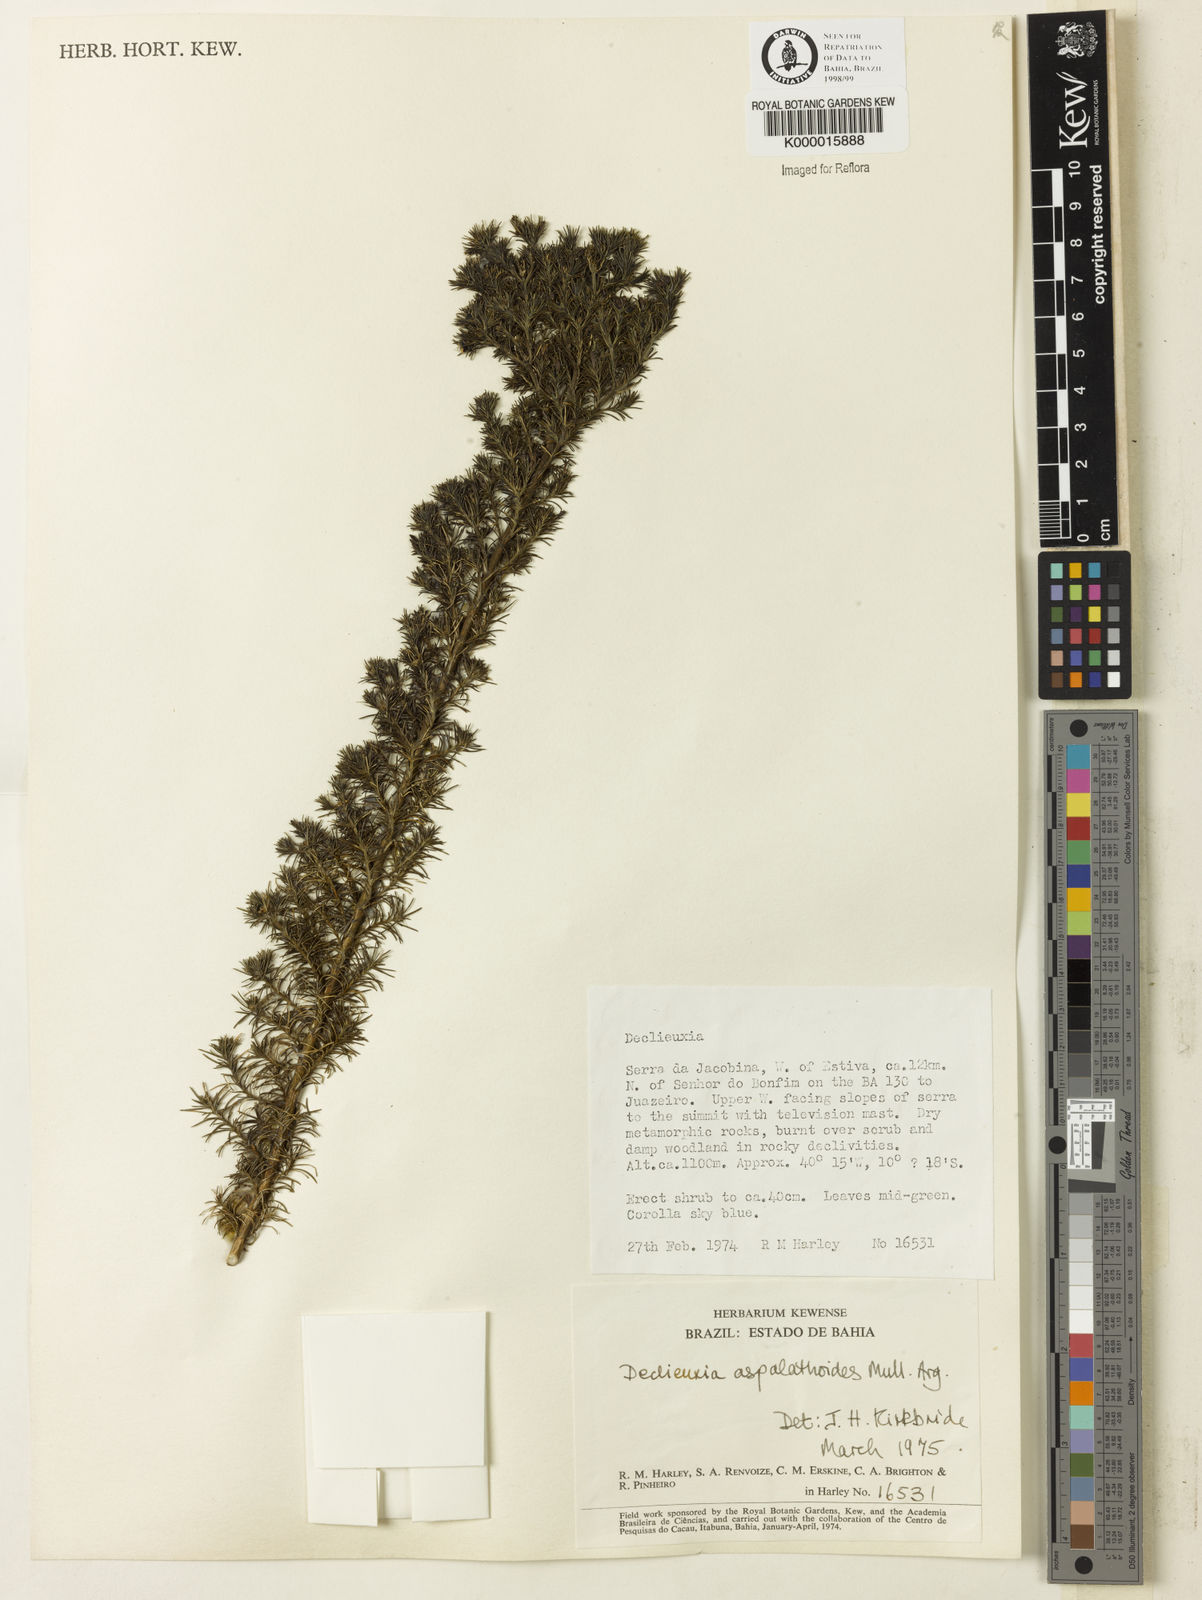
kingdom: Plantae
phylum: Tracheophyta
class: Magnoliopsida
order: Gentianales
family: Rubiaceae
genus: Declieuxia
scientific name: Declieuxia aspalathoides
